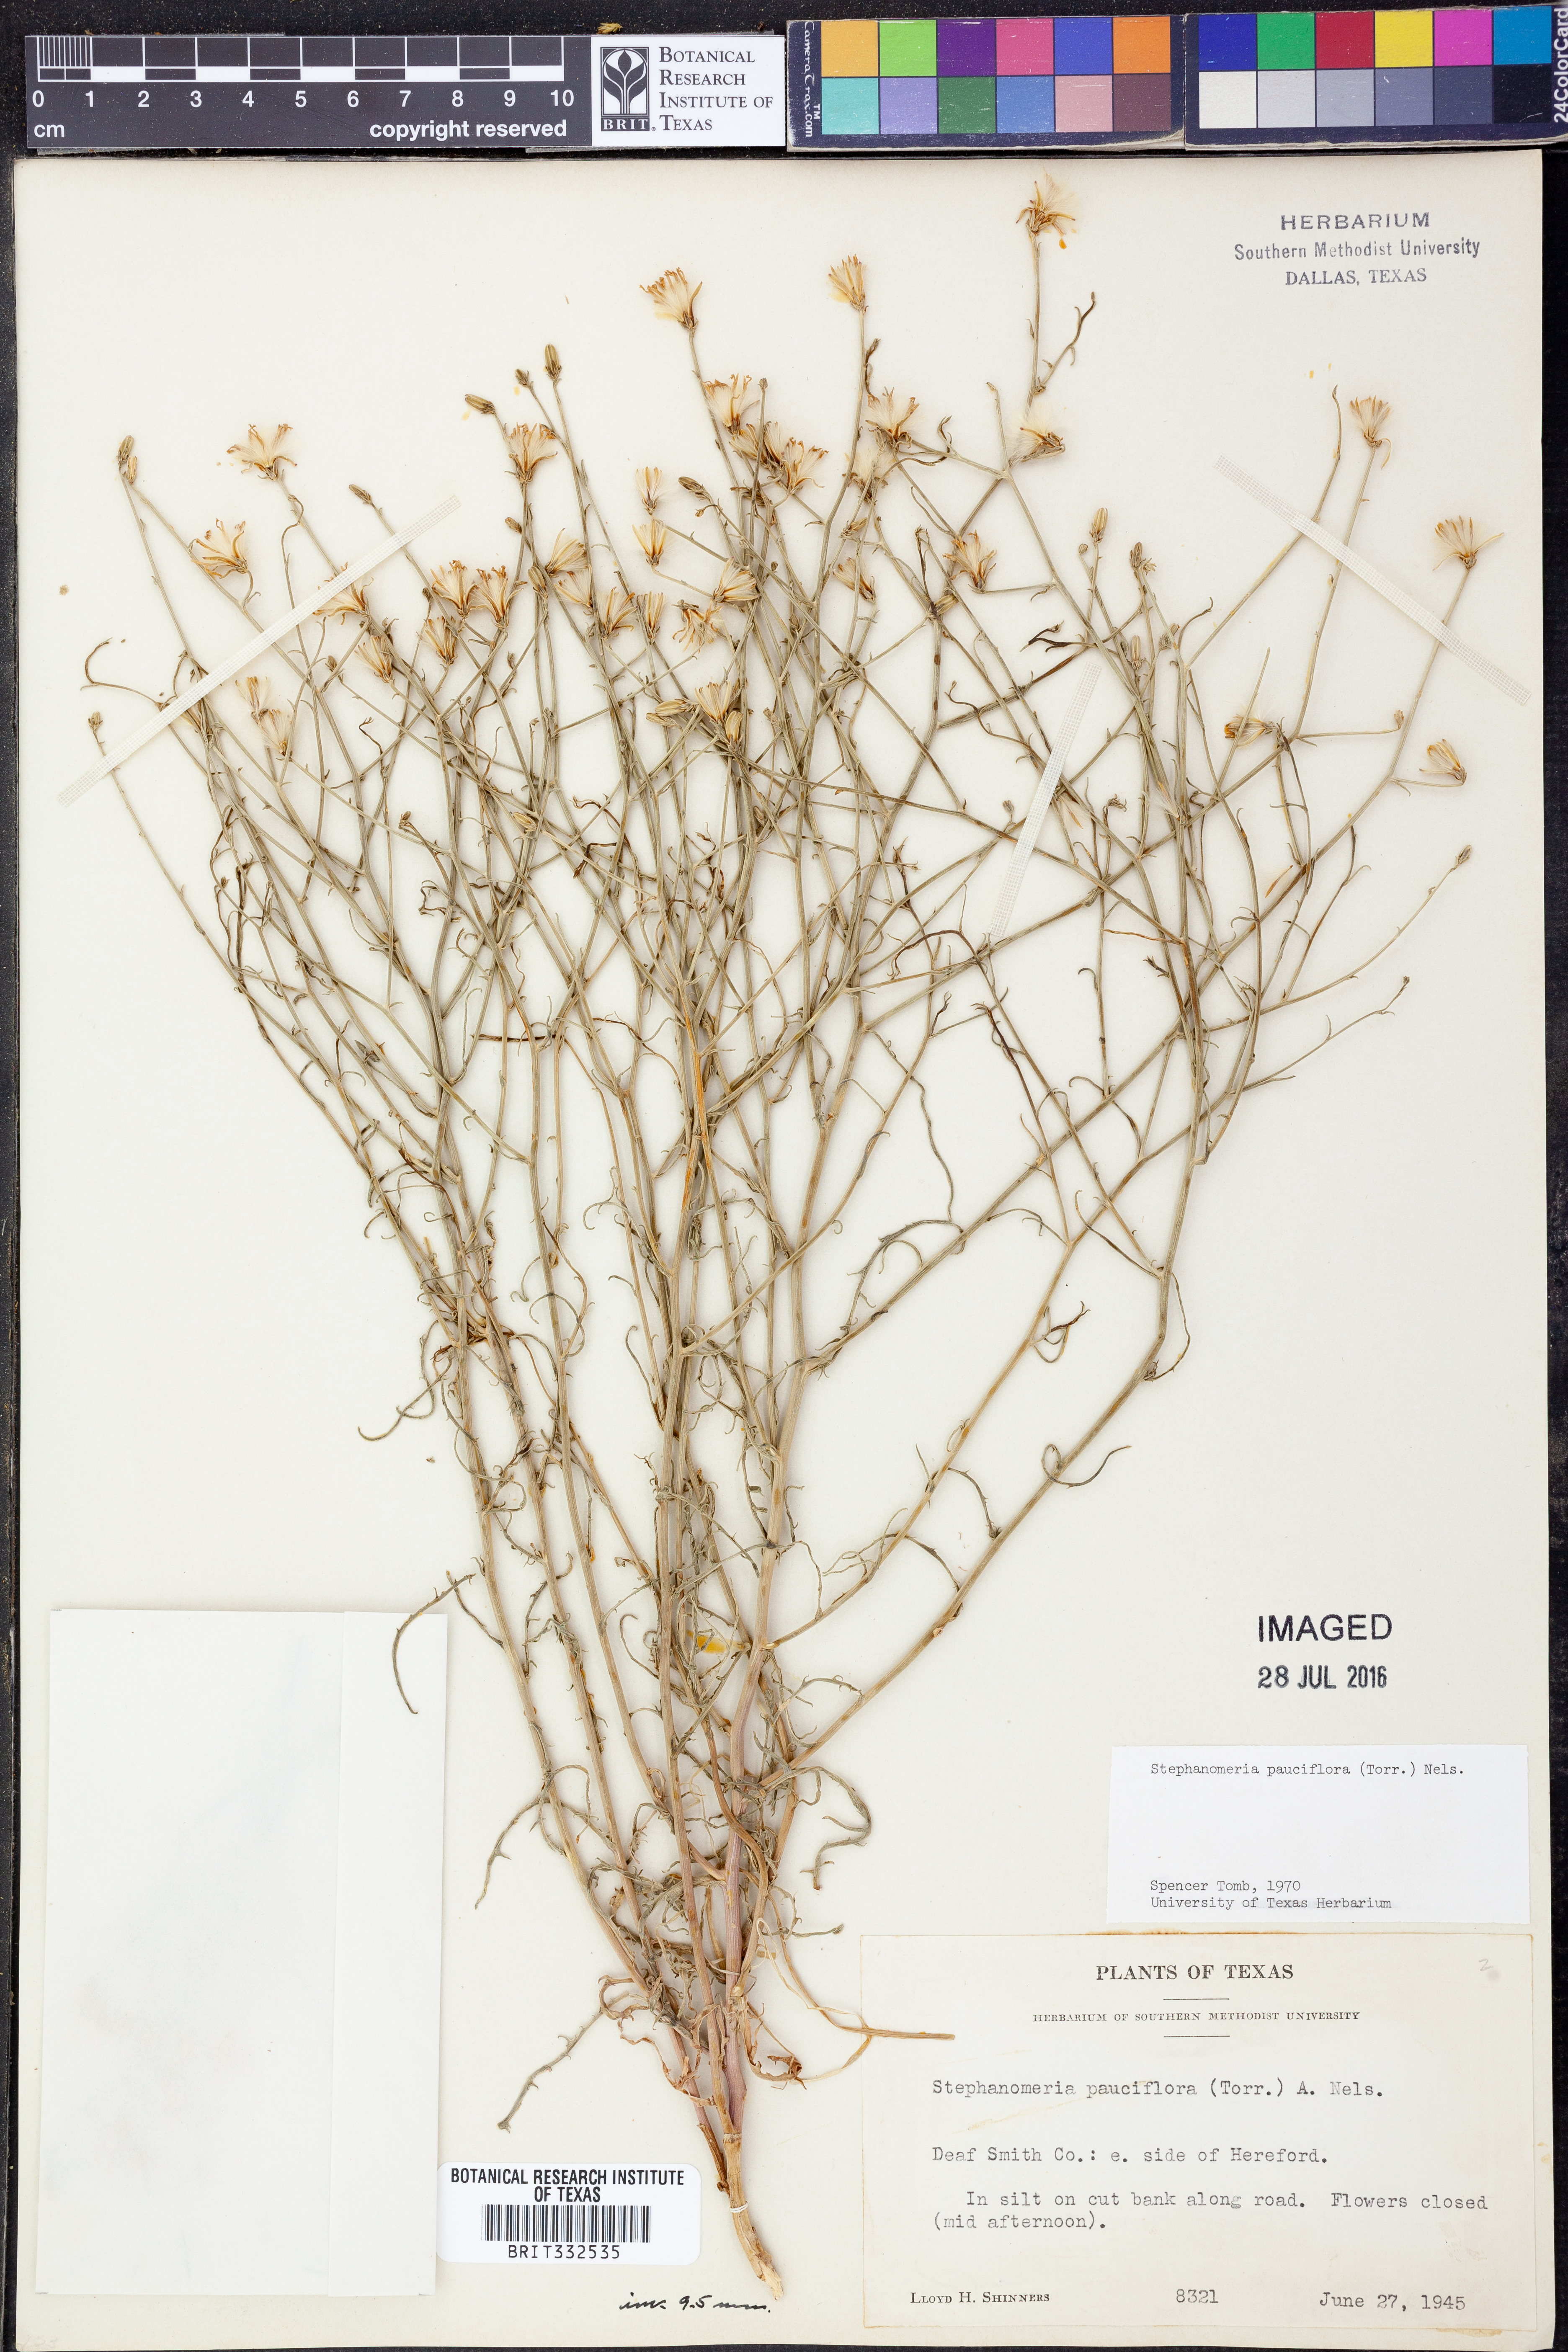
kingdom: Plantae
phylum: Tracheophyta
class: Magnoliopsida
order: Asterales
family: Asteraceae
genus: Stephanomeria
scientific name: Stephanomeria pauciflora
